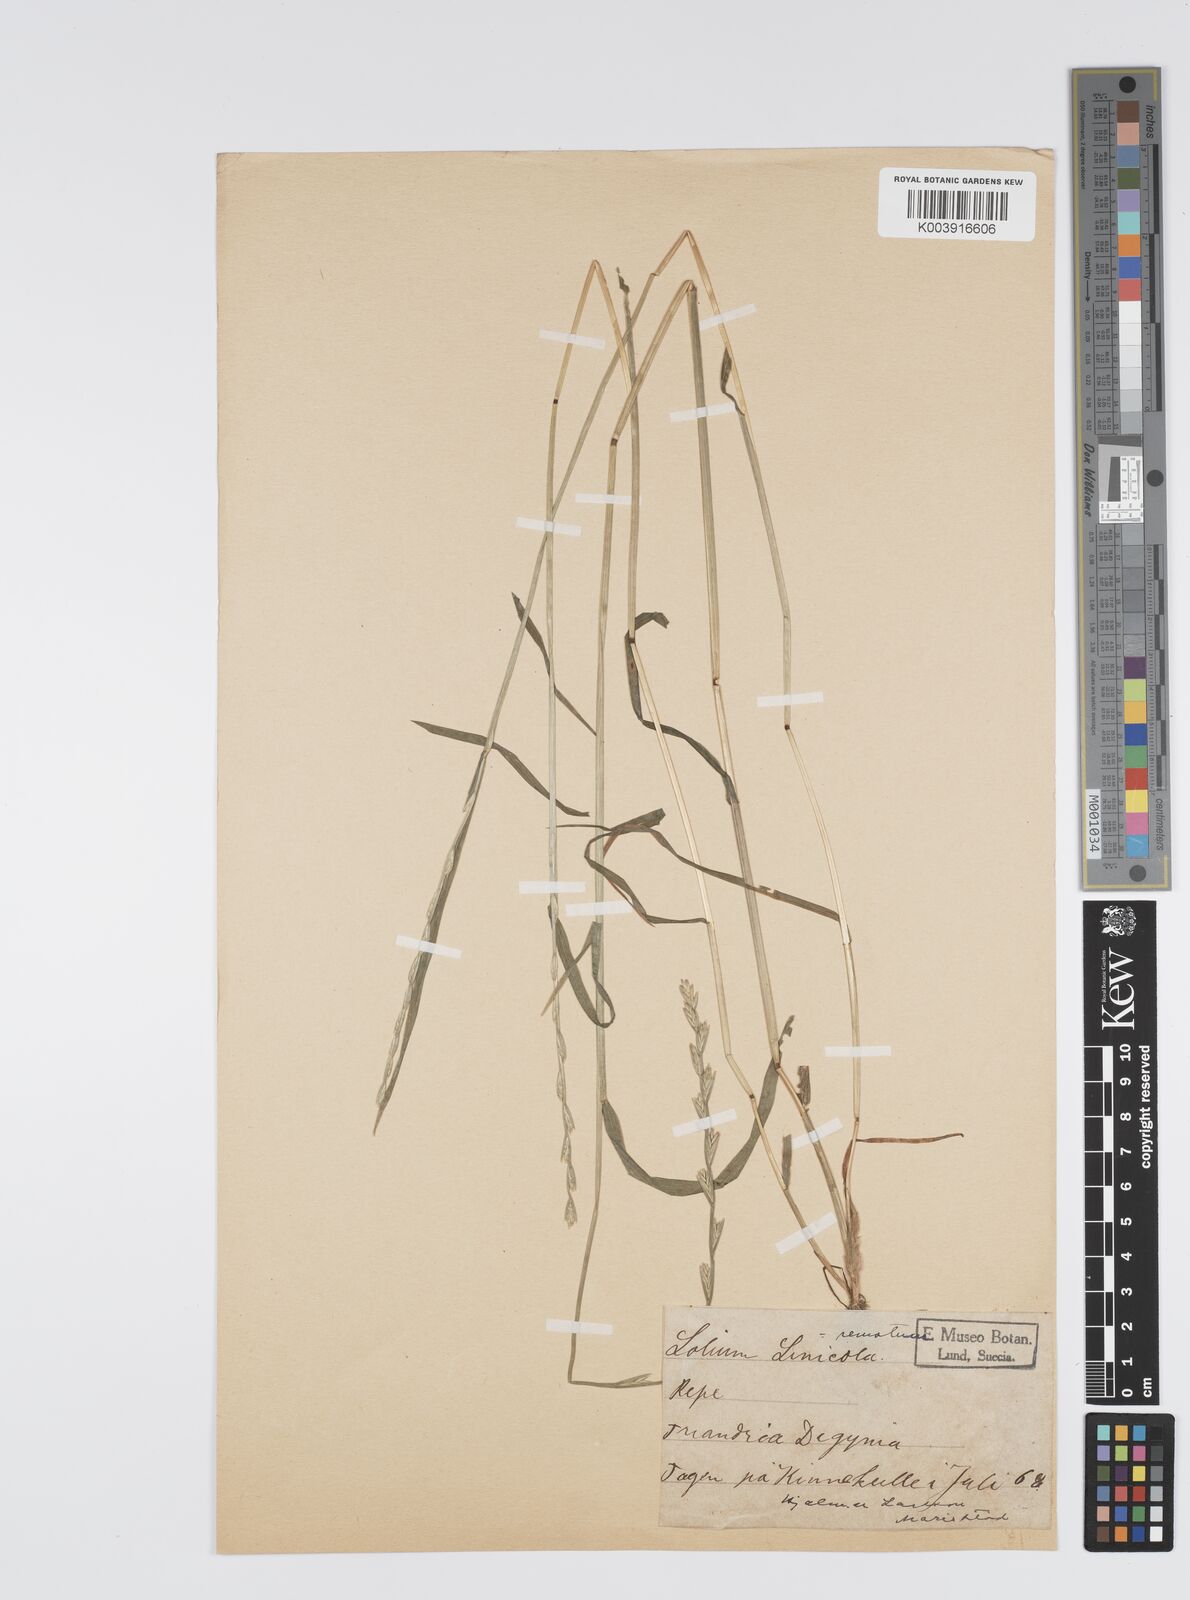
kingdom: Plantae
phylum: Tracheophyta
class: Liliopsida
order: Poales
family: Poaceae
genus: Lolium
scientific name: Lolium remotum
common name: Flaxfield rye-grass
